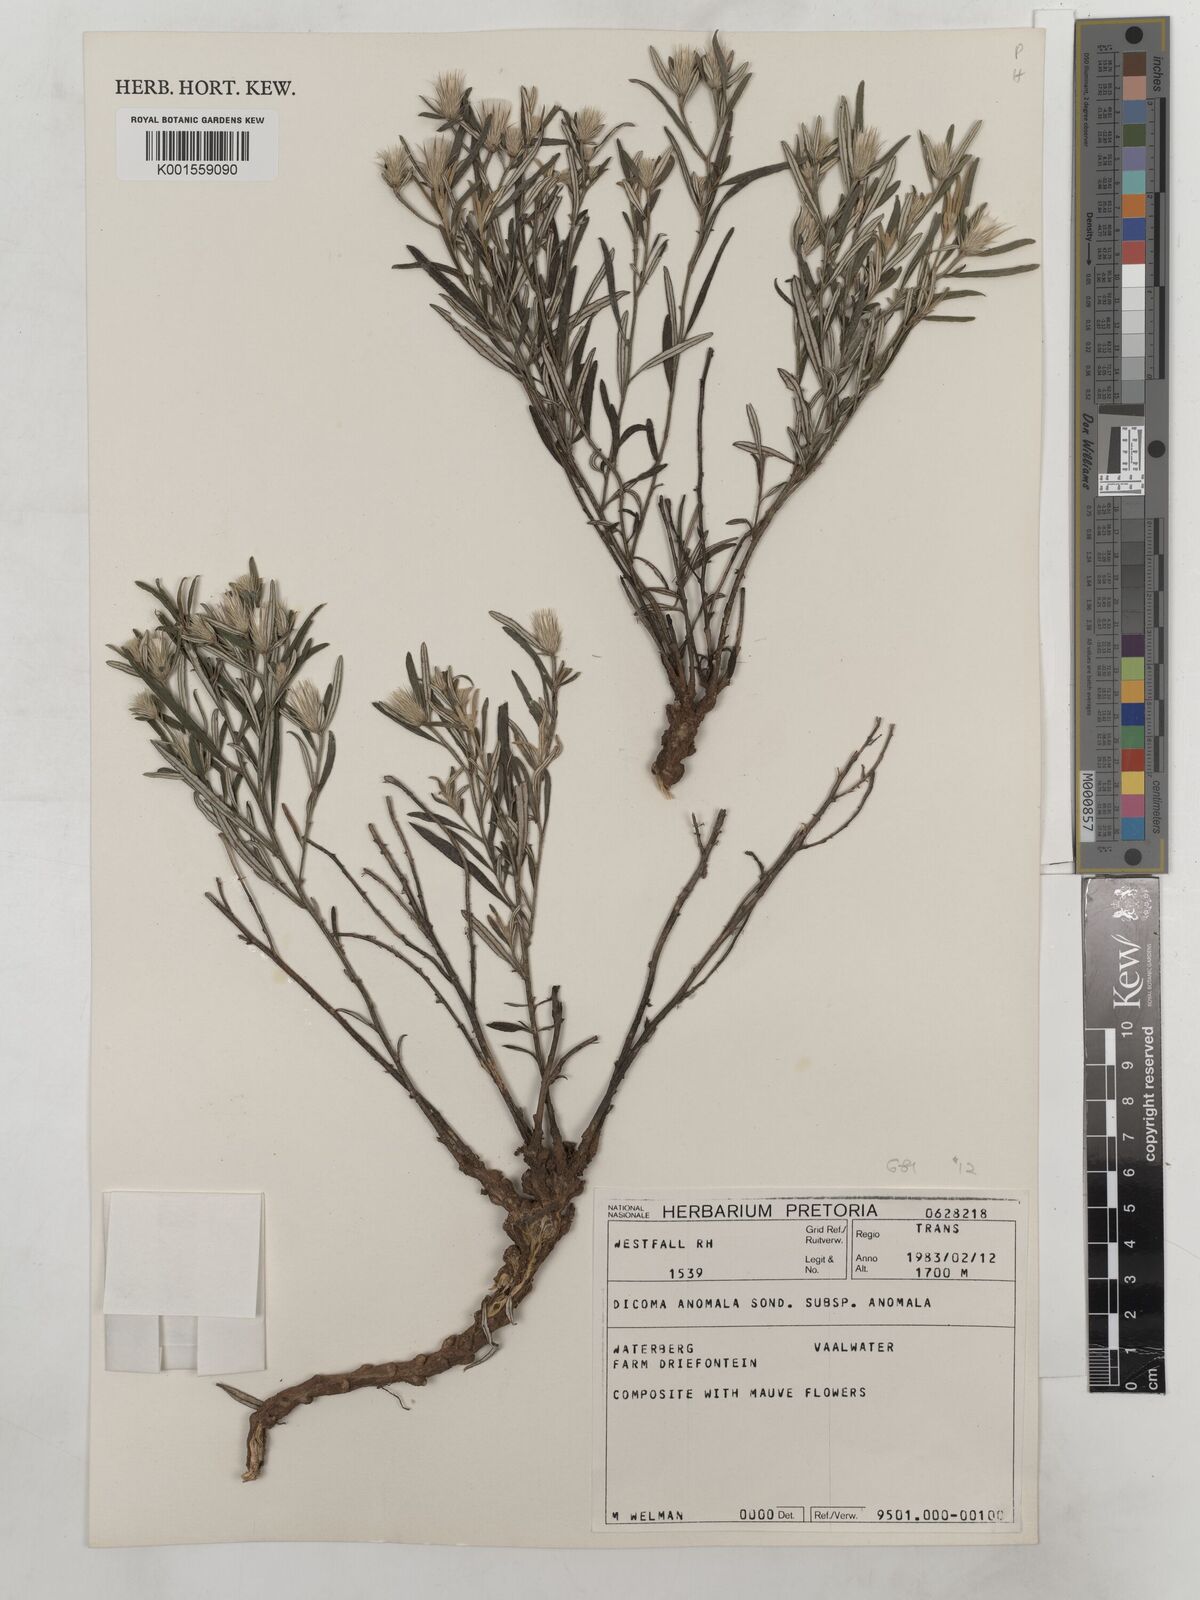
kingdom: Plantae
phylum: Tracheophyta
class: Magnoliopsida
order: Asterales
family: Asteraceae
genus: Dicoma
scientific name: Dicoma anomala
